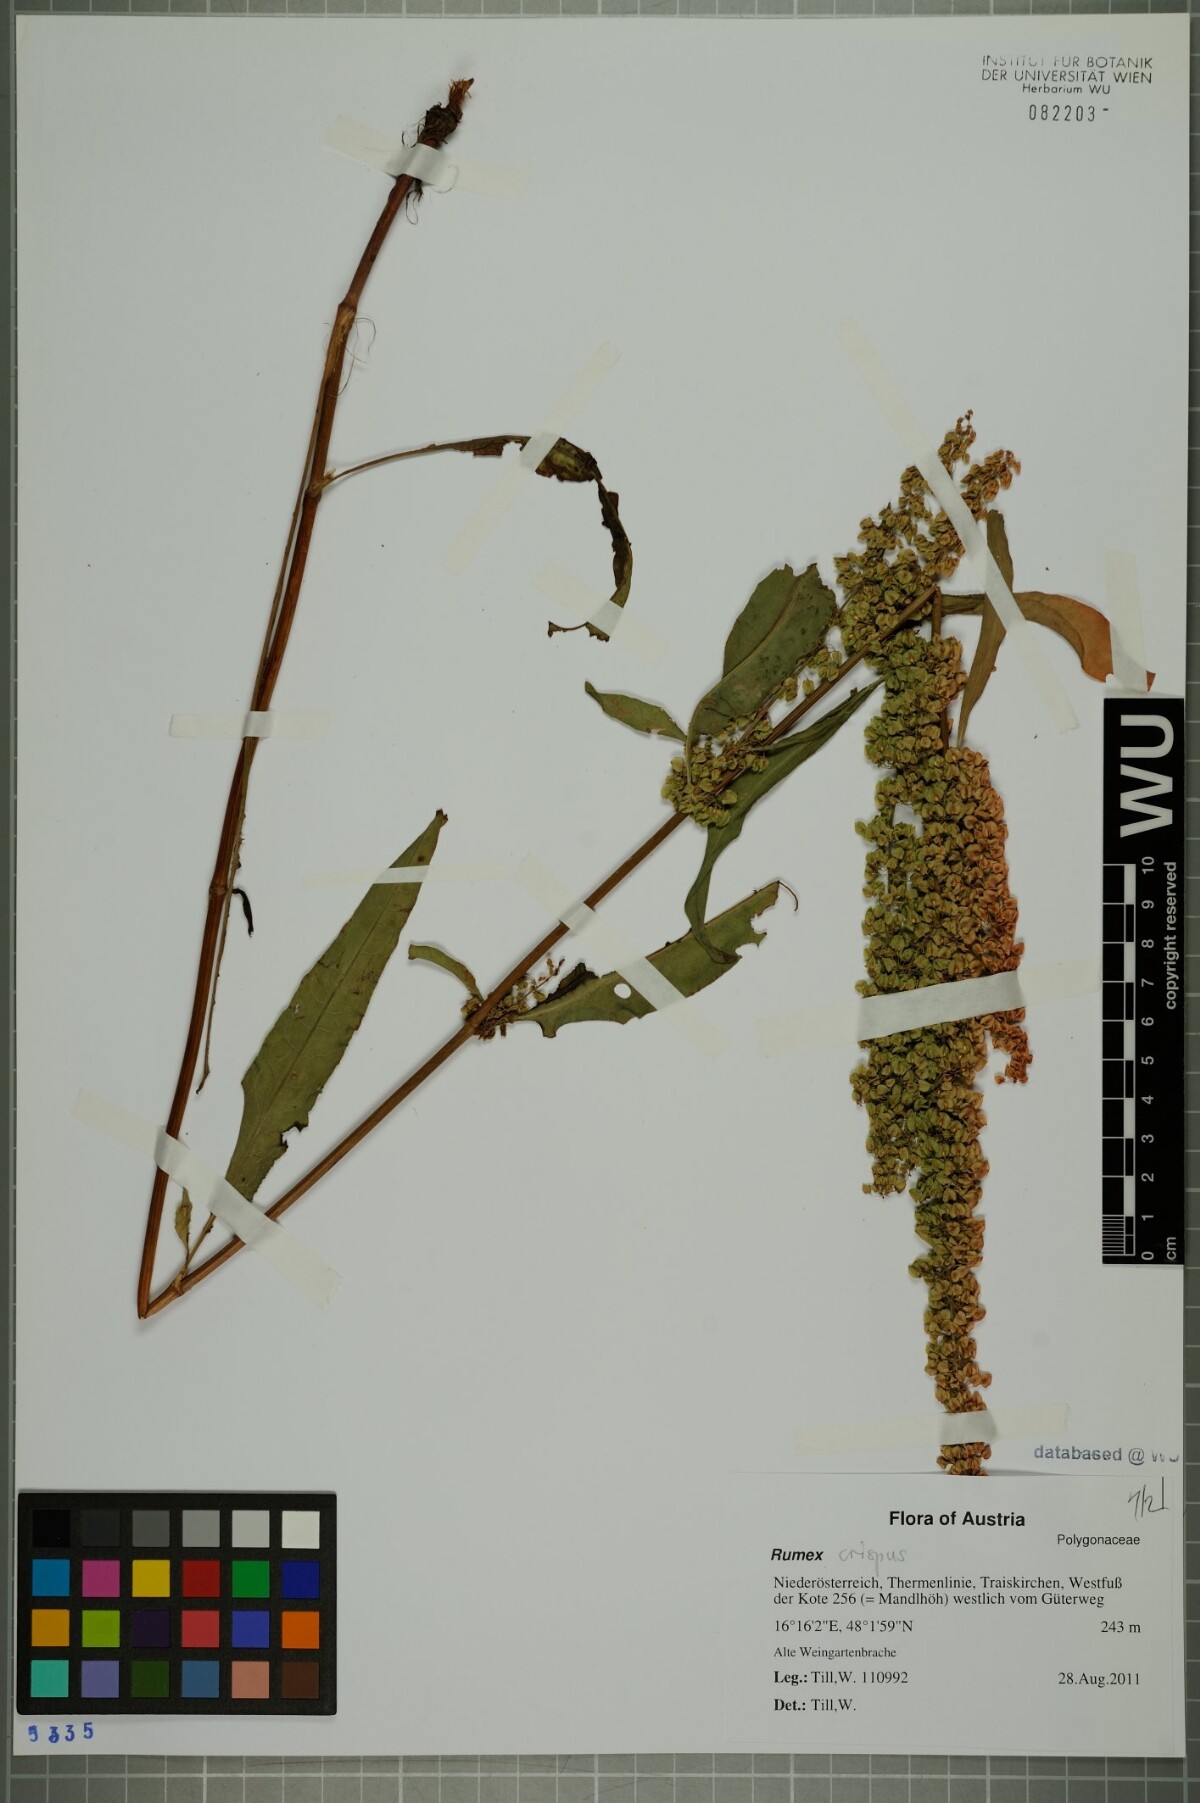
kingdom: Plantae
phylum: Tracheophyta
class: Magnoliopsida
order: Caryophyllales
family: Polygonaceae
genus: Rumex
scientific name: Rumex crispus
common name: Curled dock
